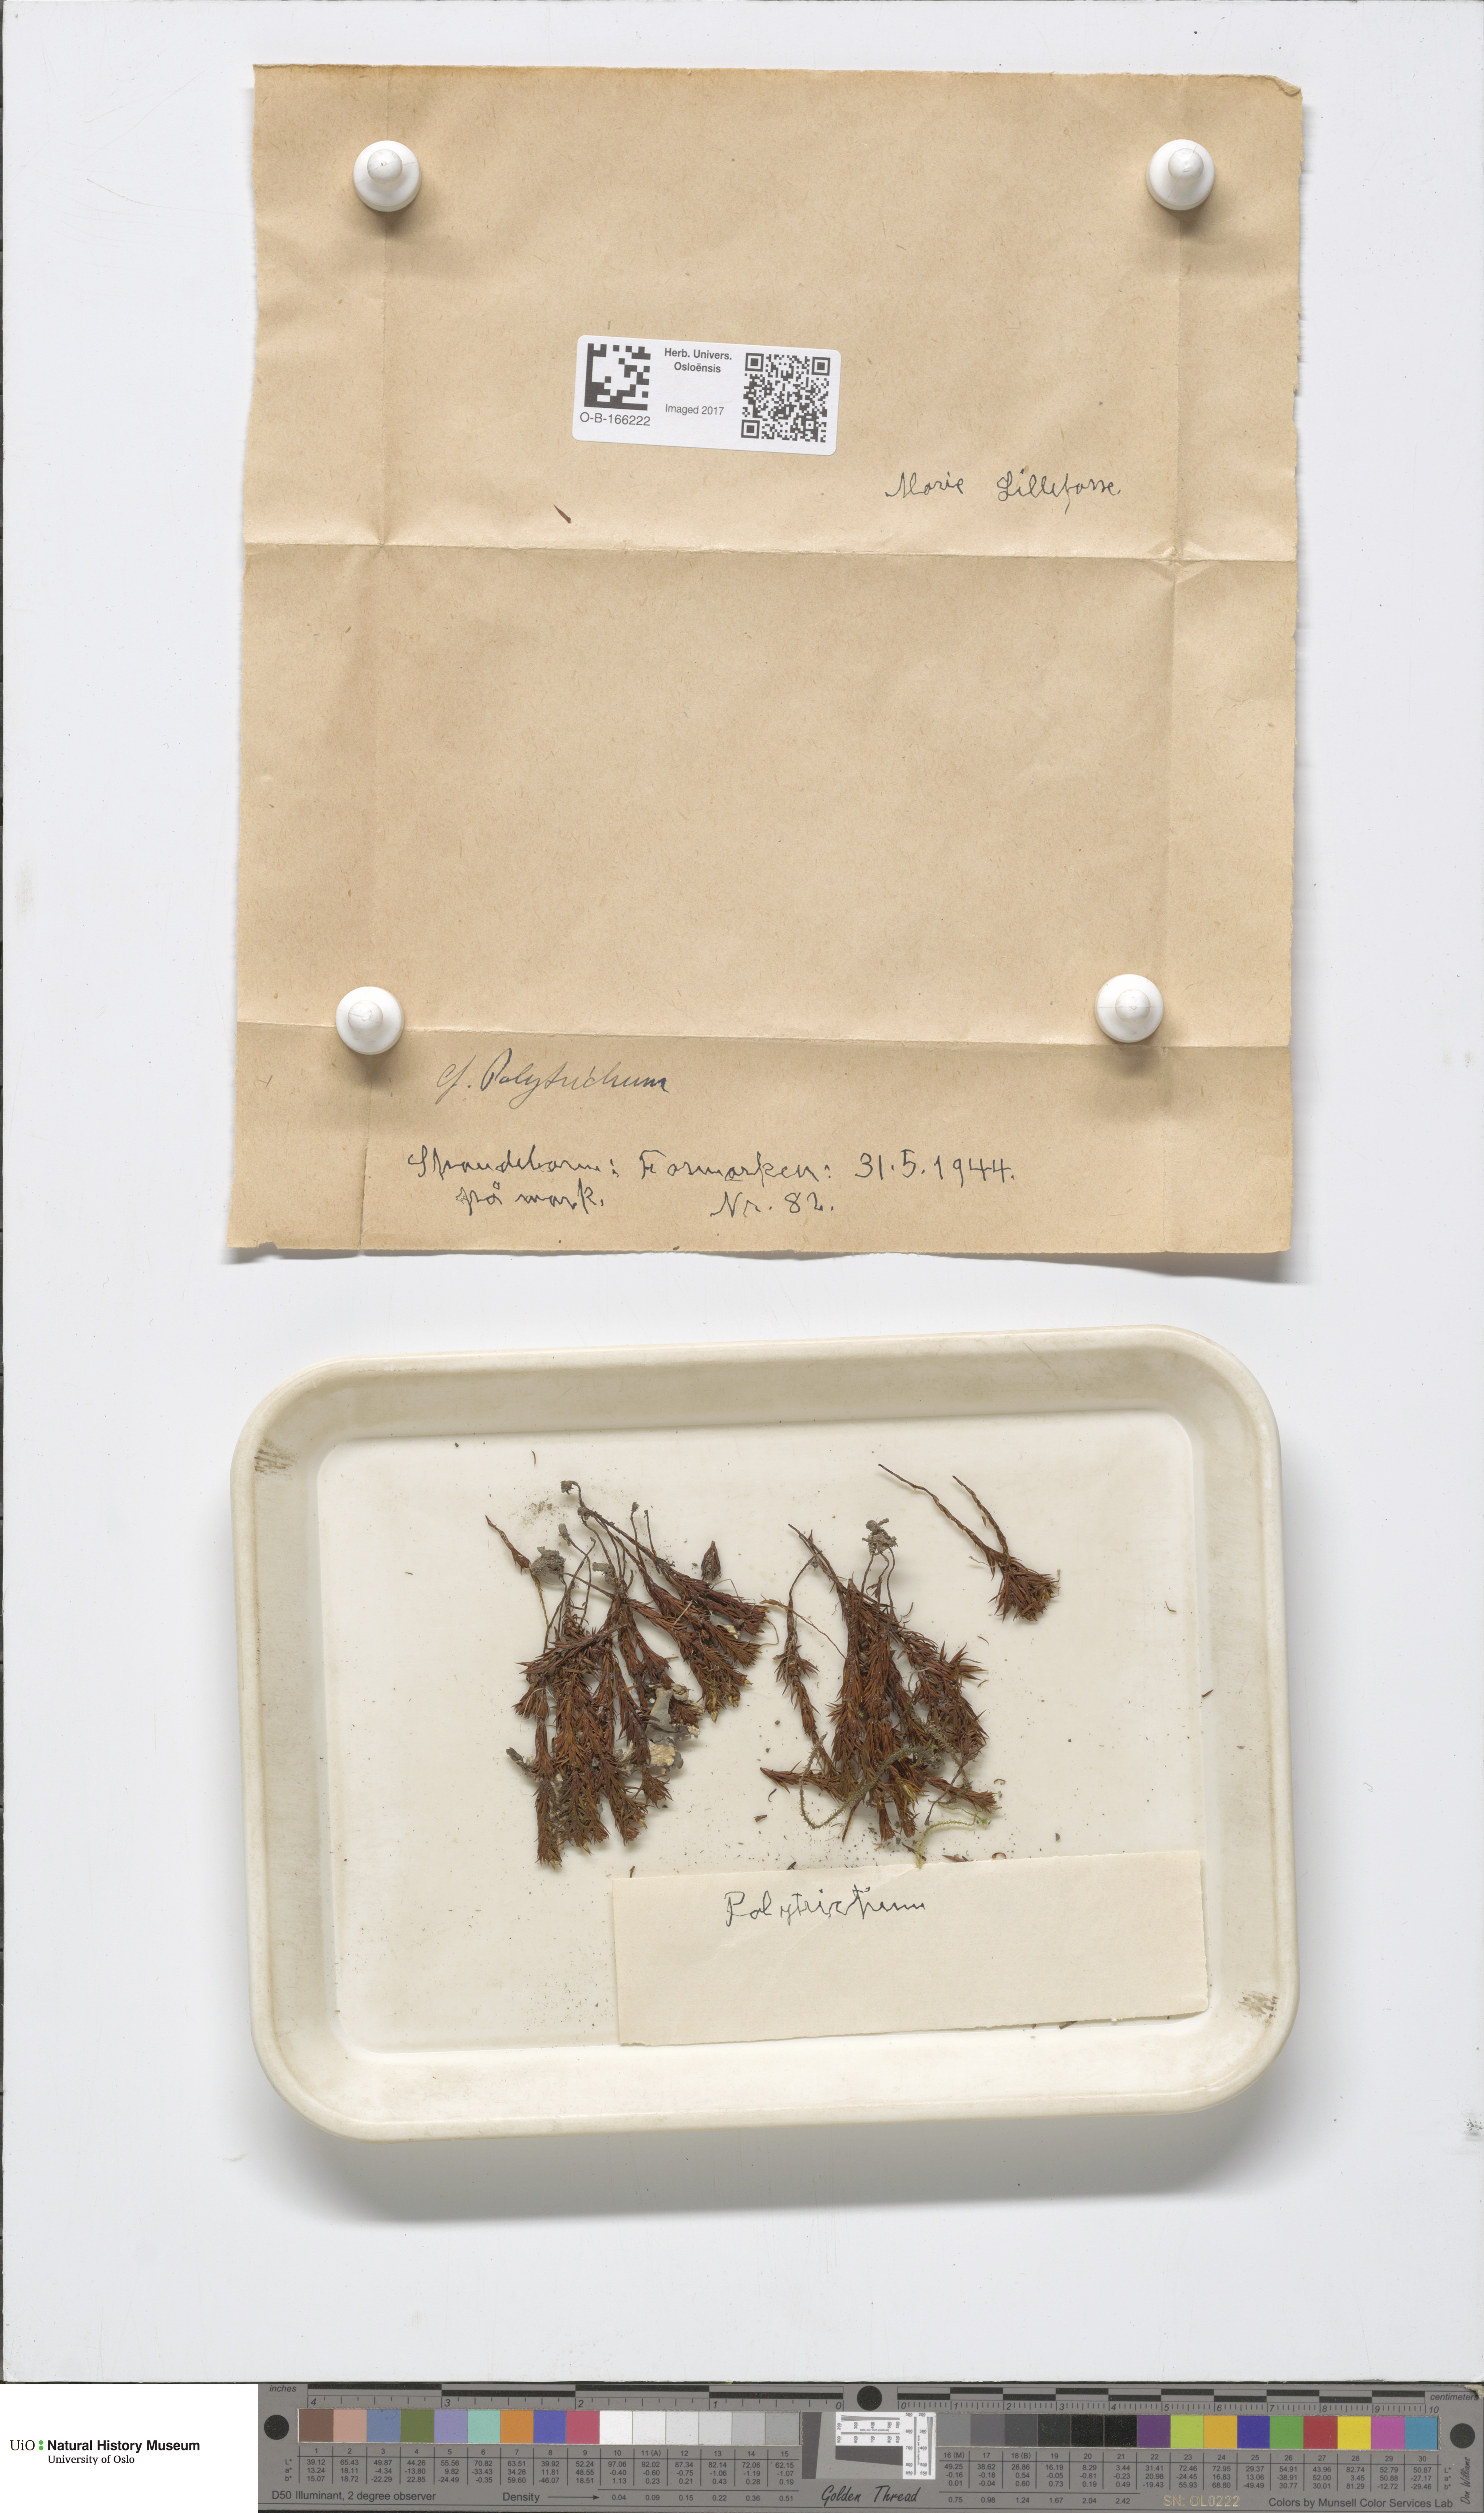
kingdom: Plantae
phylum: Bryophyta
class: Polytrichopsida
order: Polytrichales
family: Polytrichaceae
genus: Polytrichum
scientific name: Polytrichum
